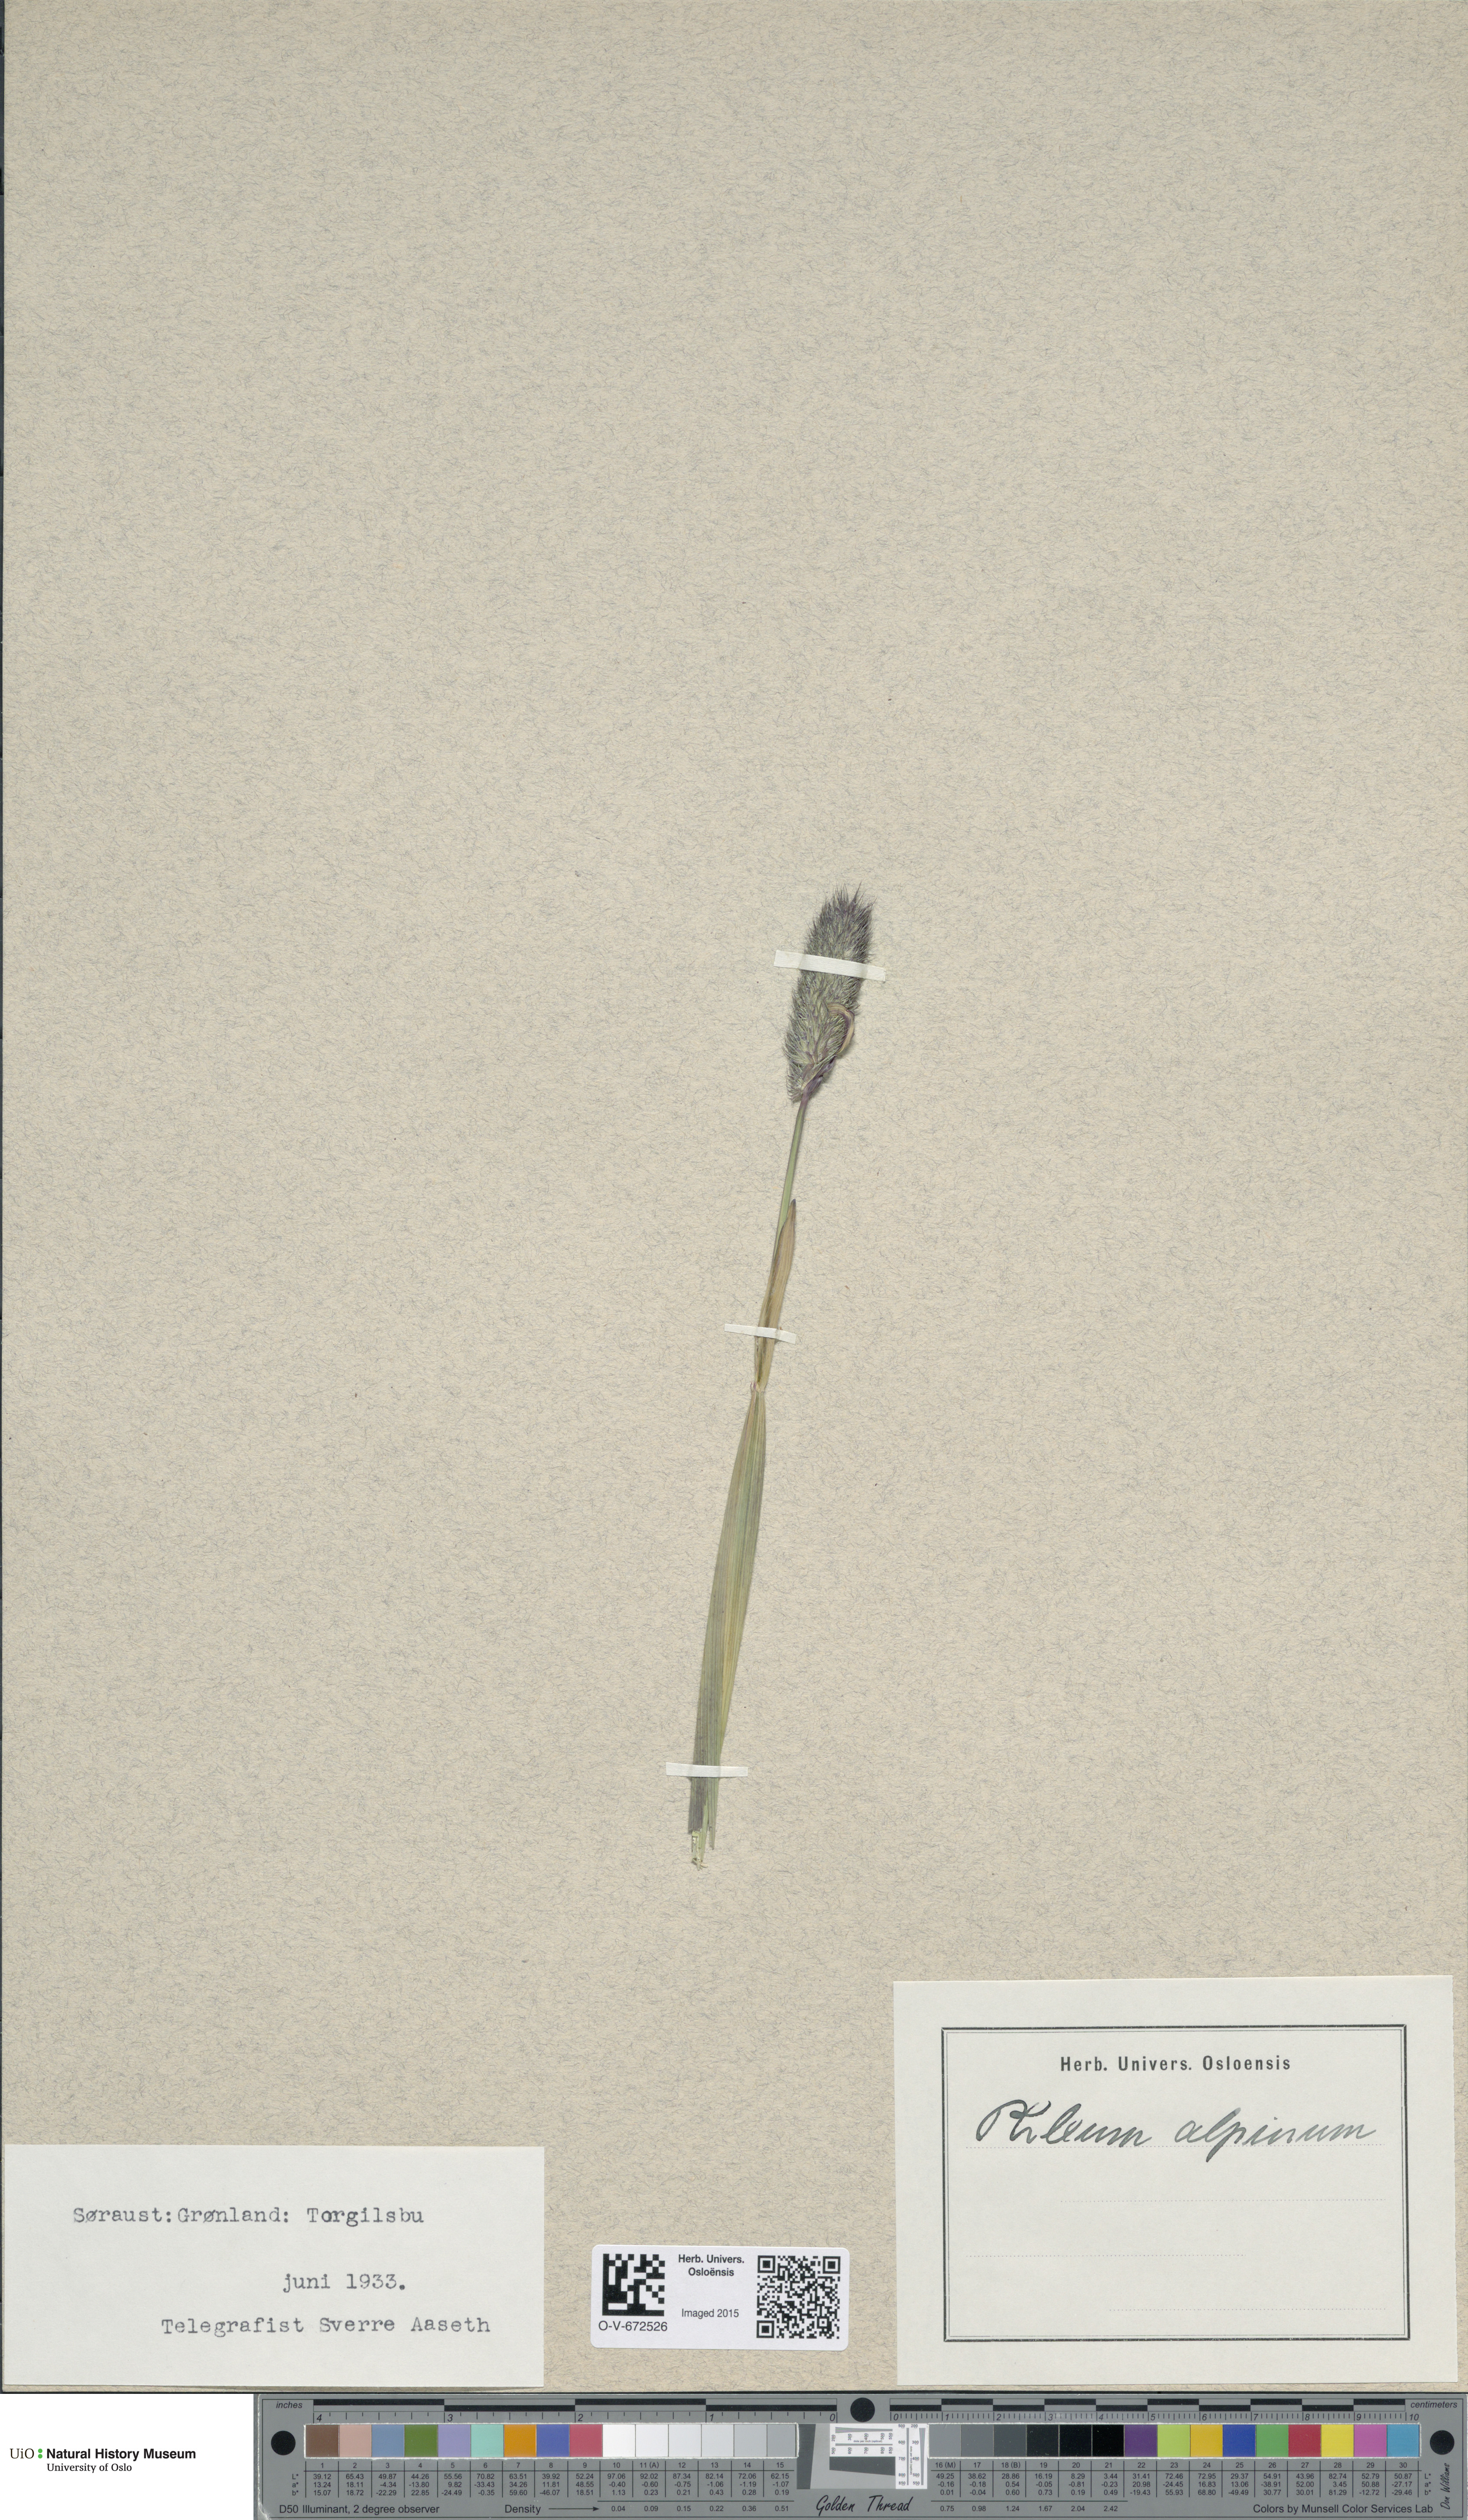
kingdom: Plantae
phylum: Tracheophyta
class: Liliopsida
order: Poales
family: Poaceae
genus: Phleum
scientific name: Phleum alpinum
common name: Alpine cat's-tail
